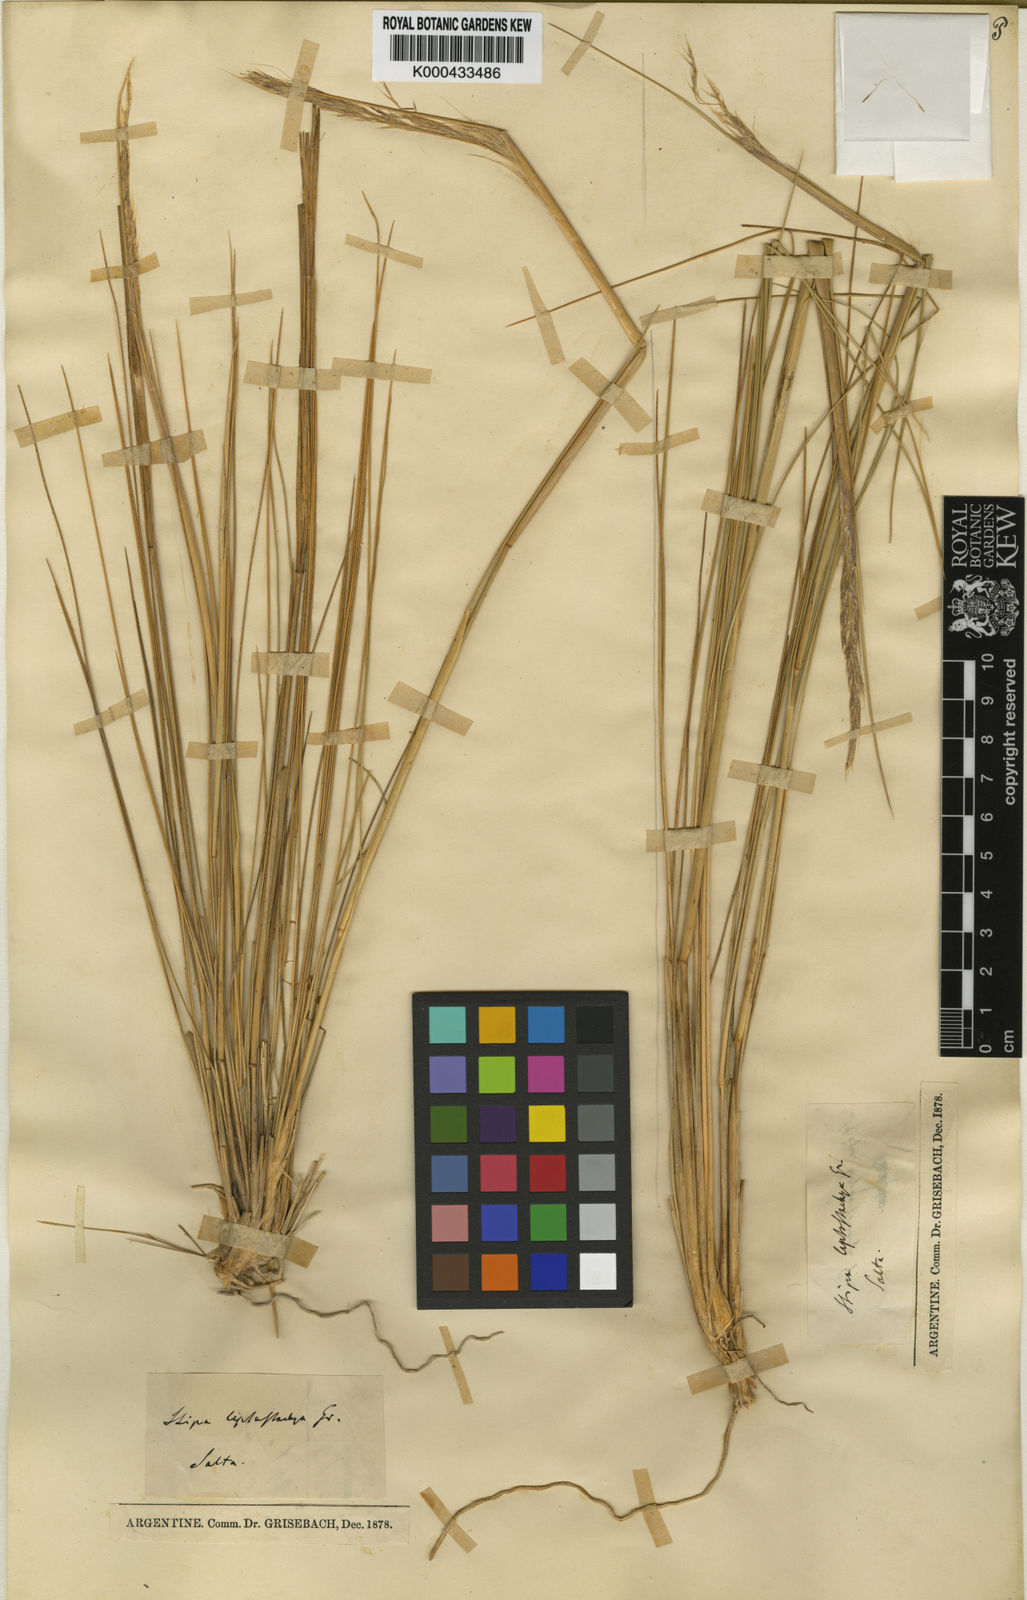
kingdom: Plantae
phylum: Tracheophyta
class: Liliopsida
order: Poales
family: Poaceae
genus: Jarava
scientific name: Jarava leptostachya
